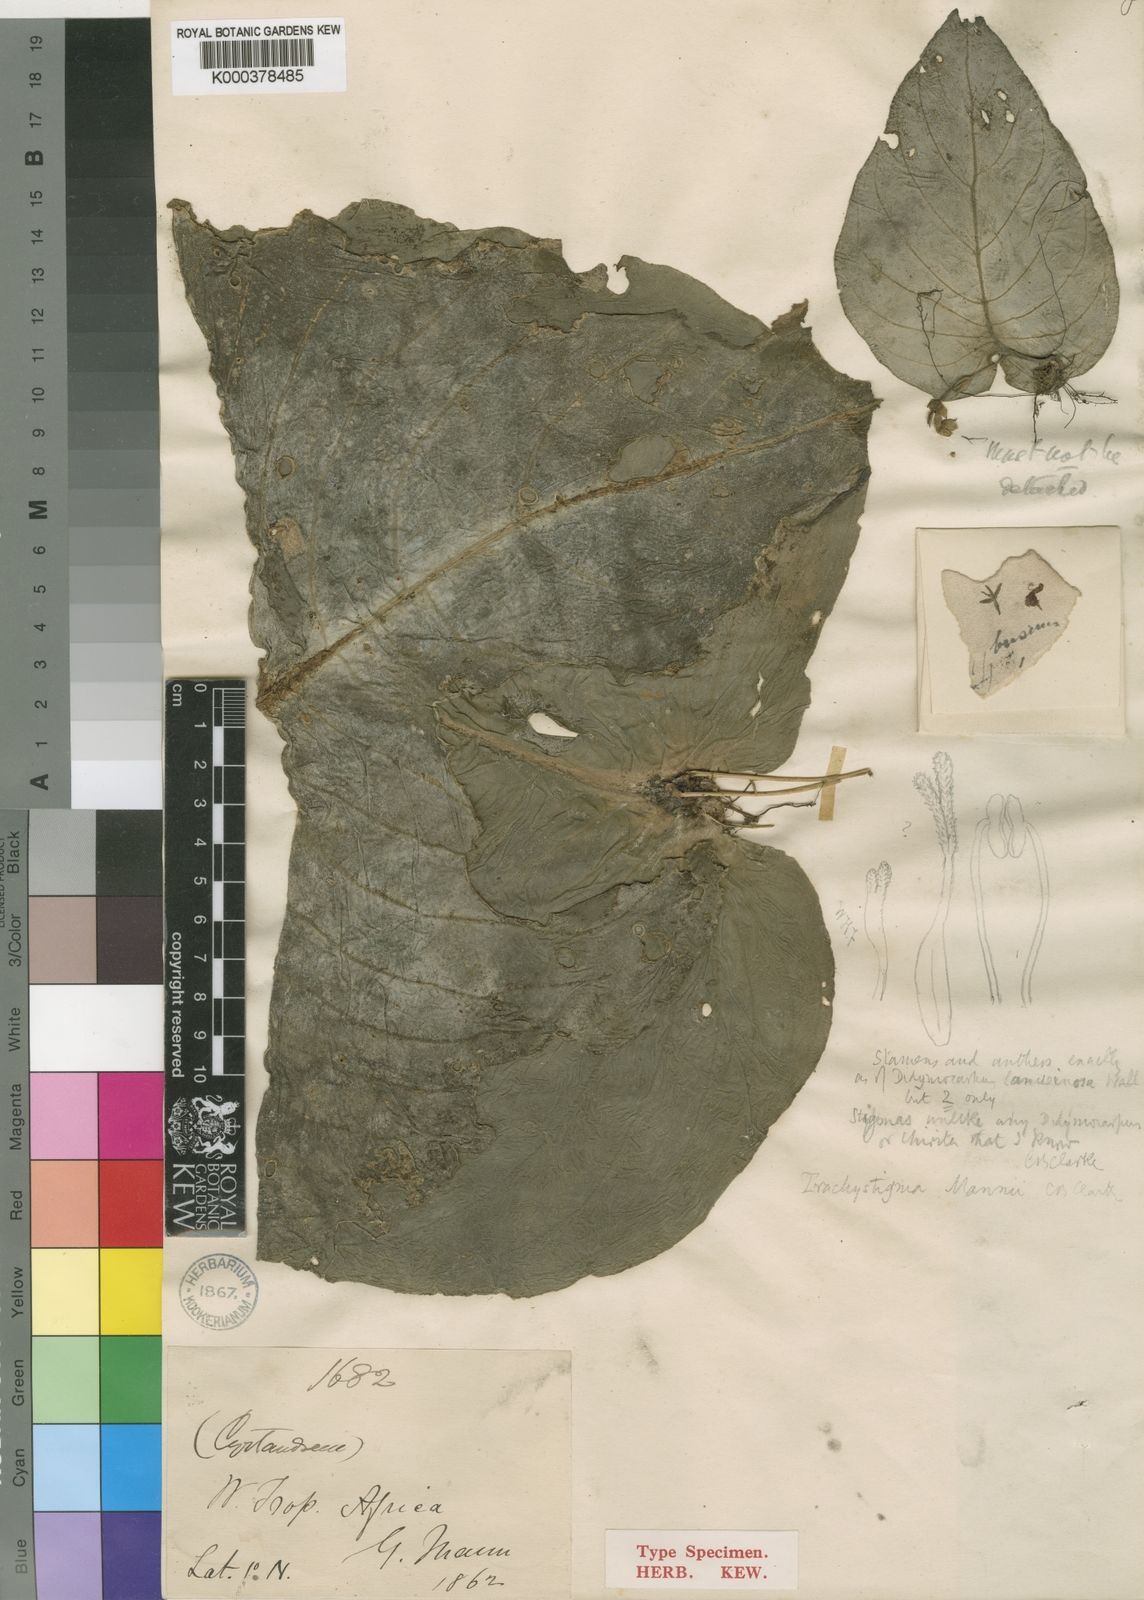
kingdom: Plantae
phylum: Tracheophyta
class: Magnoliopsida
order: Lamiales
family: Gesneriaceae
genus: Streptocarpus
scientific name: Streptocarpus mannii
